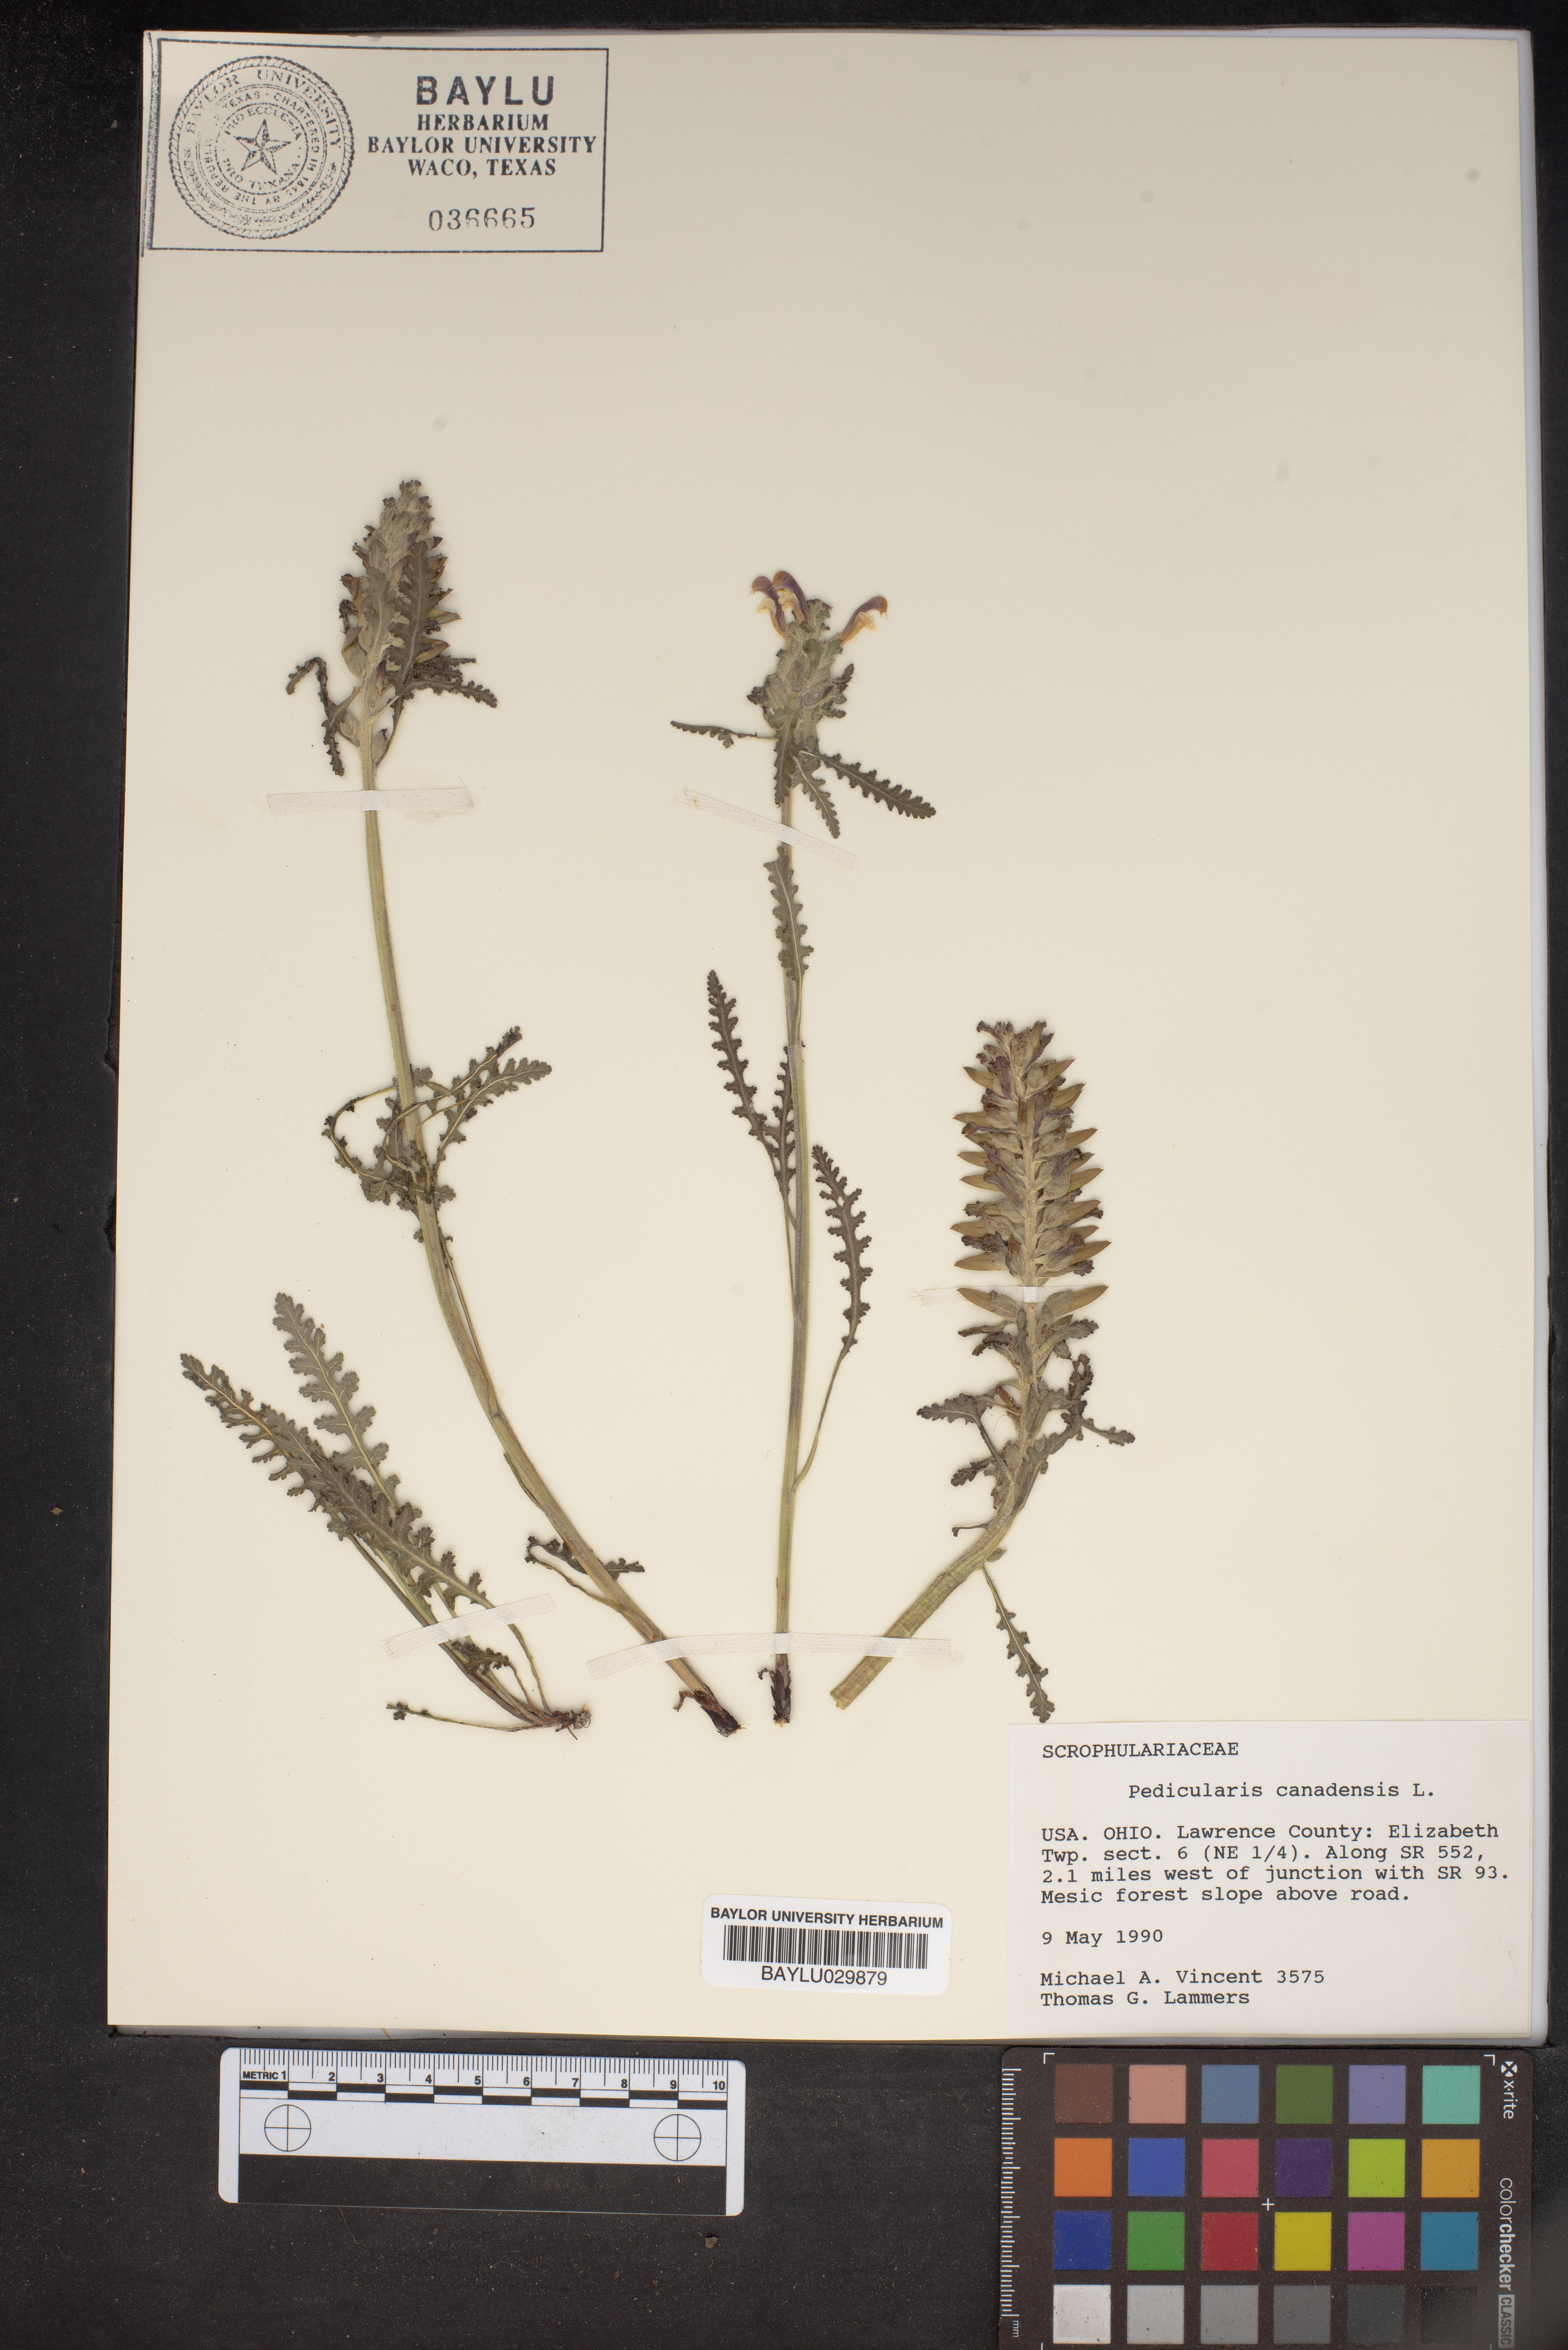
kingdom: Plantae
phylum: Tracheophyta
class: Magnoliopsida
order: Lamiales
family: Orobanchaceae
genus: Pedicularis
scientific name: Pedicularis canadensis
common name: Early lousewort
